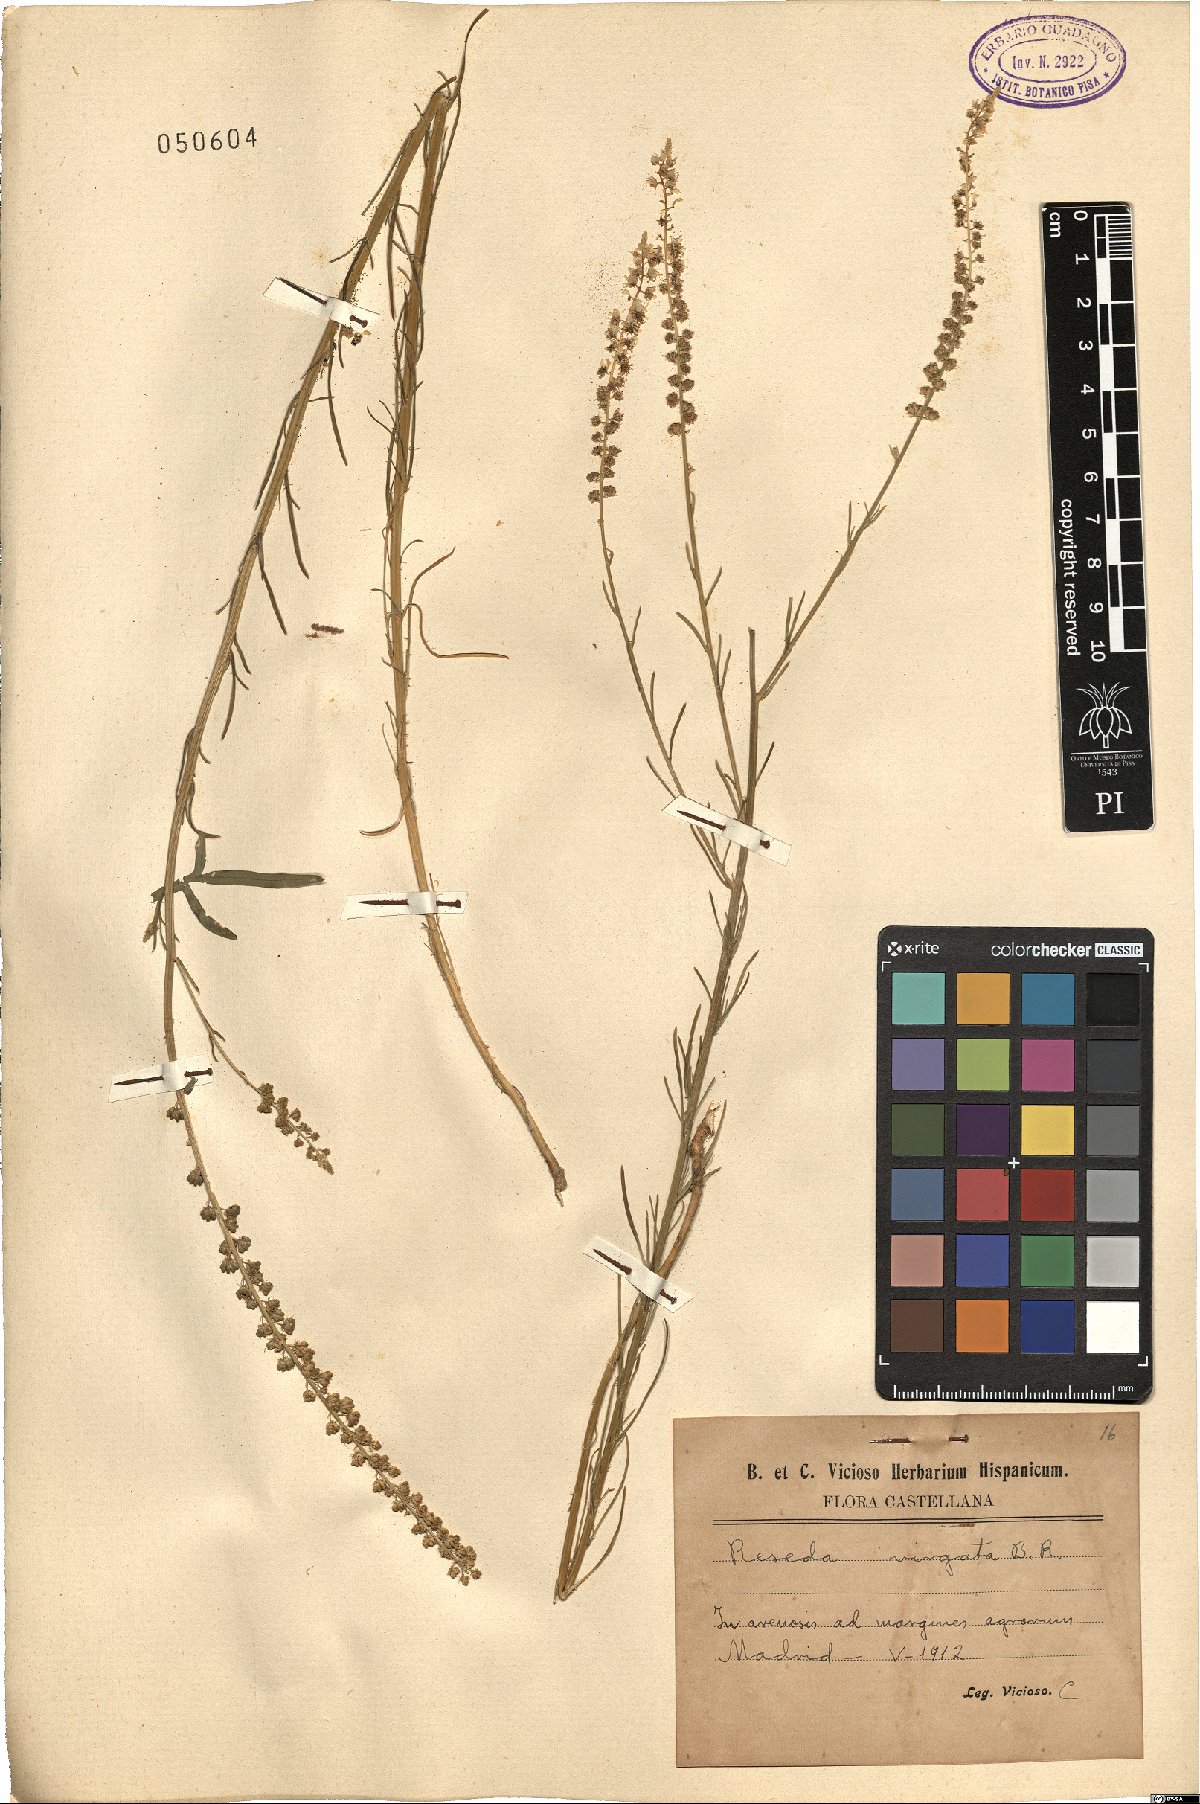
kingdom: Plantae
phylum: Tracheophyta
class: Magnoliopsida
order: Brassicales
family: Resedaceae
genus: Reseda
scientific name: Reseda virgata
